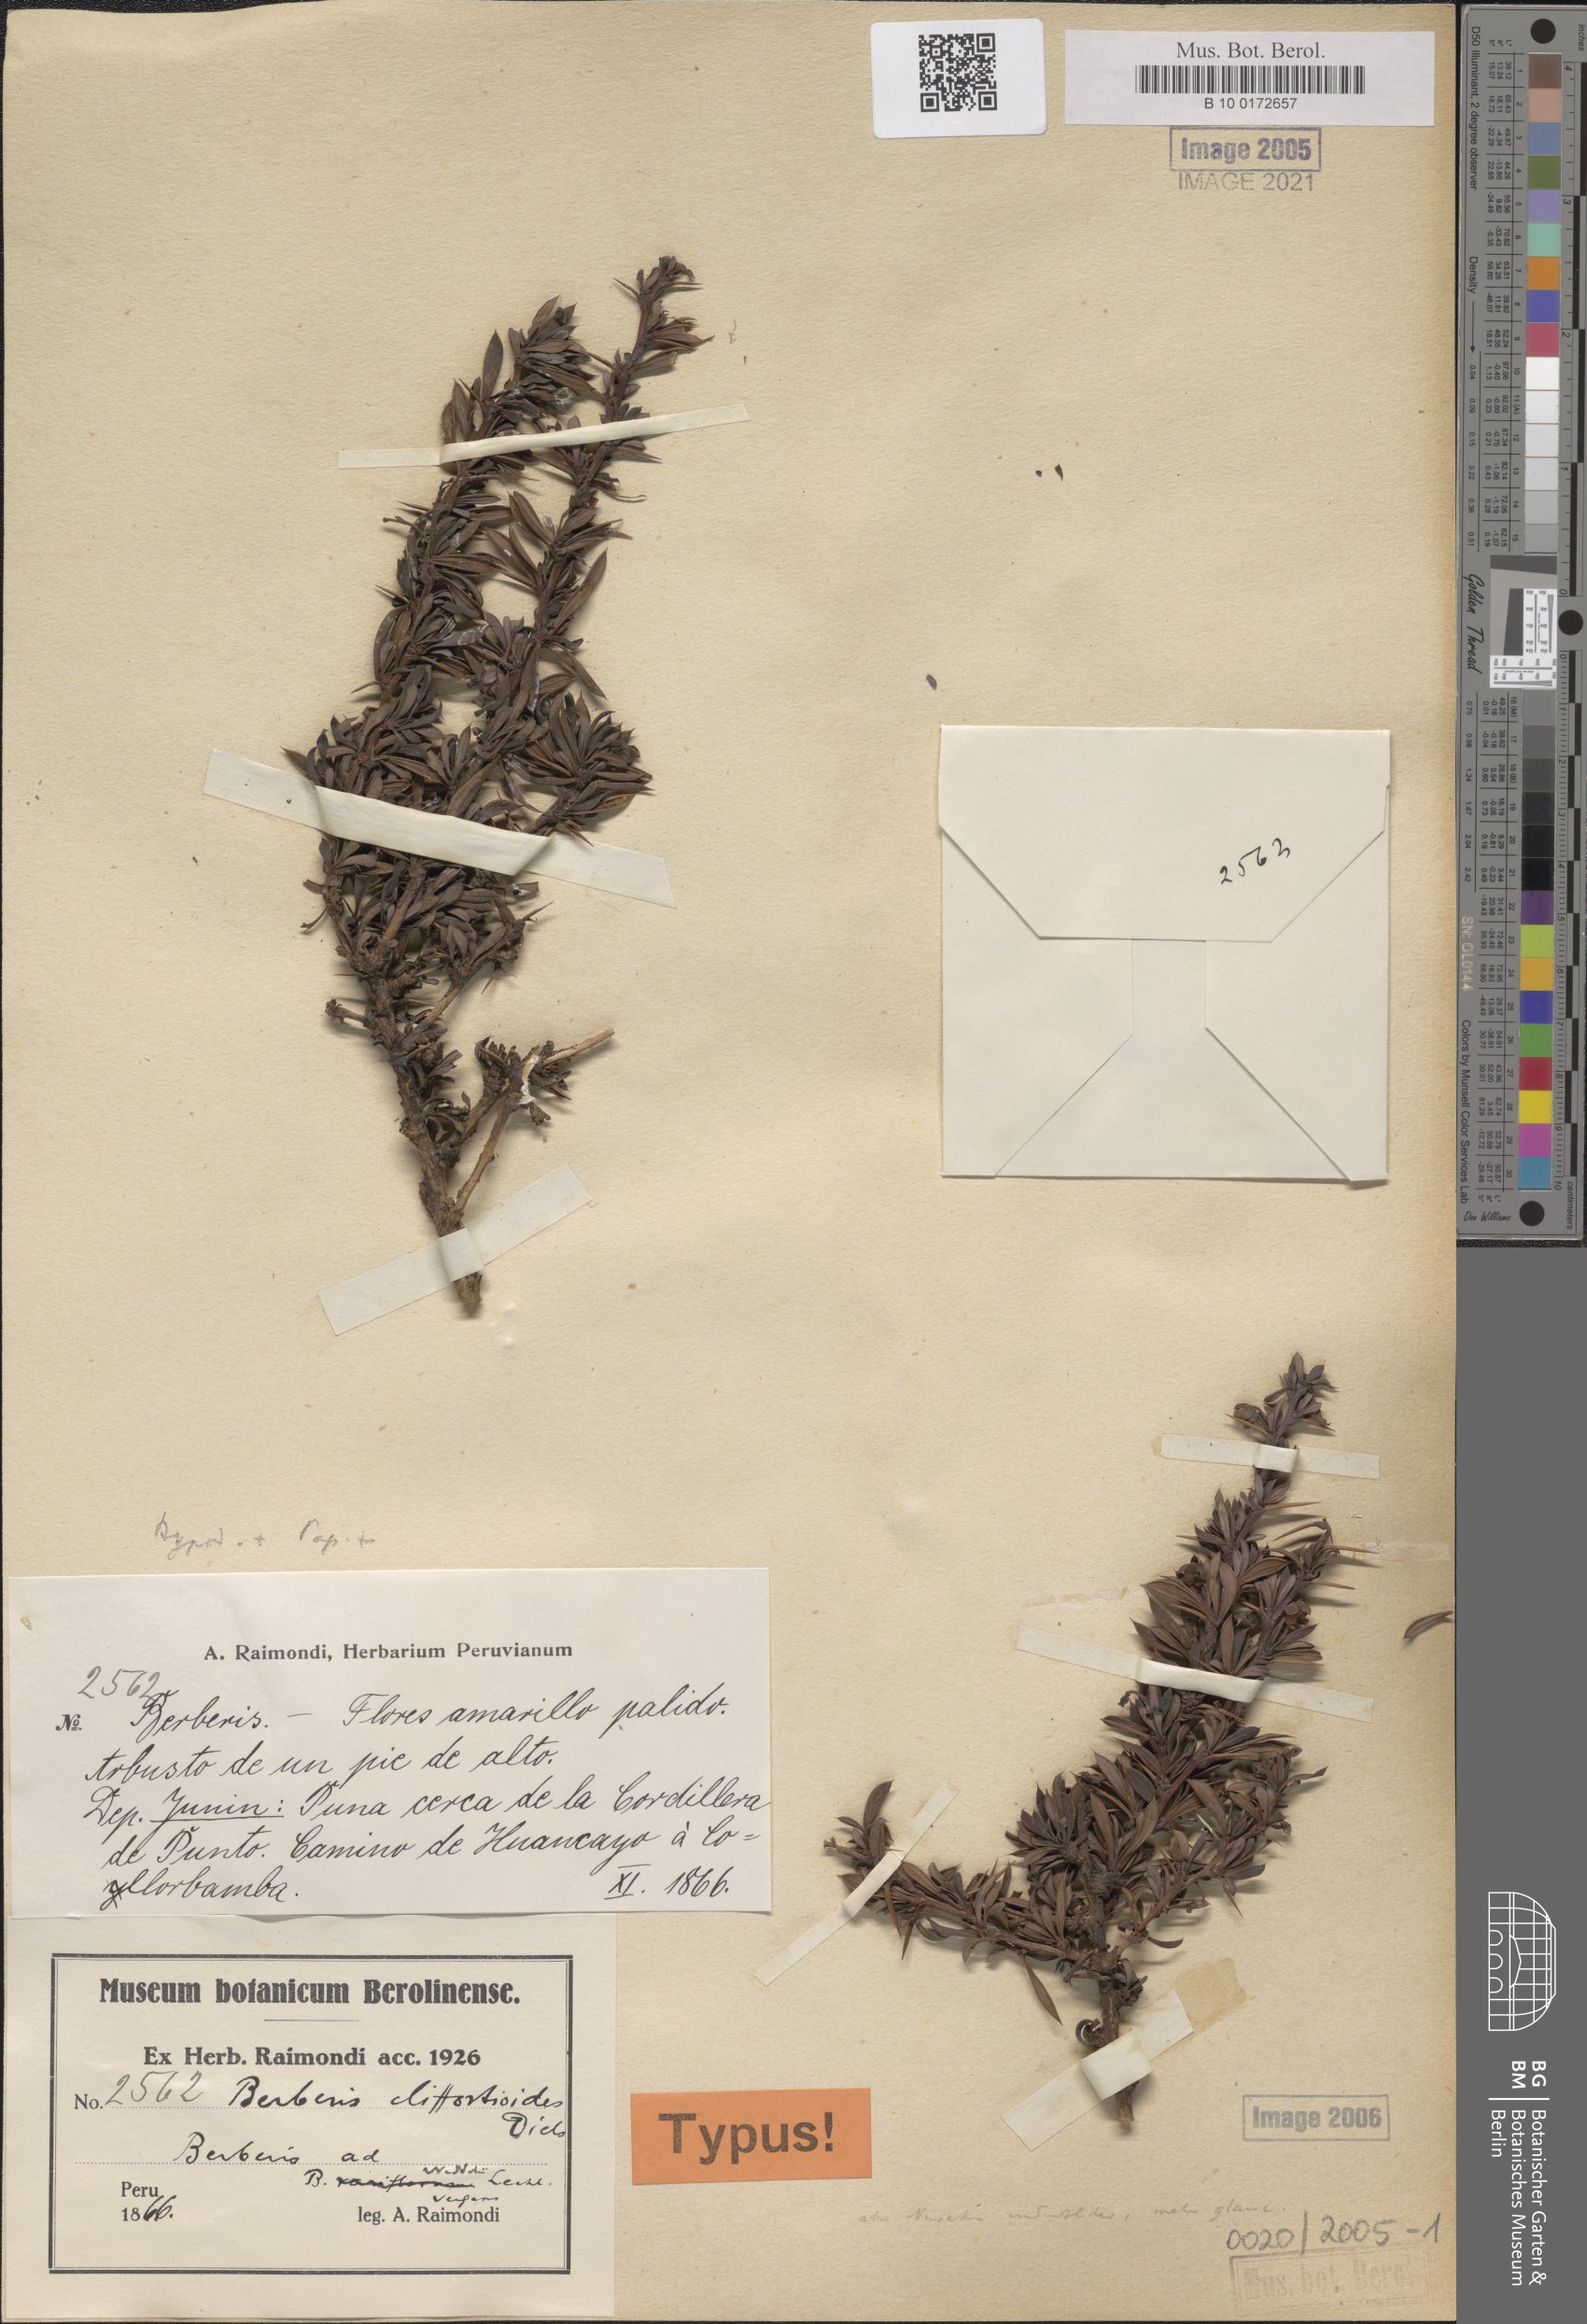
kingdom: Plantae
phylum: Tracheophyta
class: Magnoliopsida
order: Ranunculales
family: Berberidaceae
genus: Berberis
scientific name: Berberis cliffortioides
